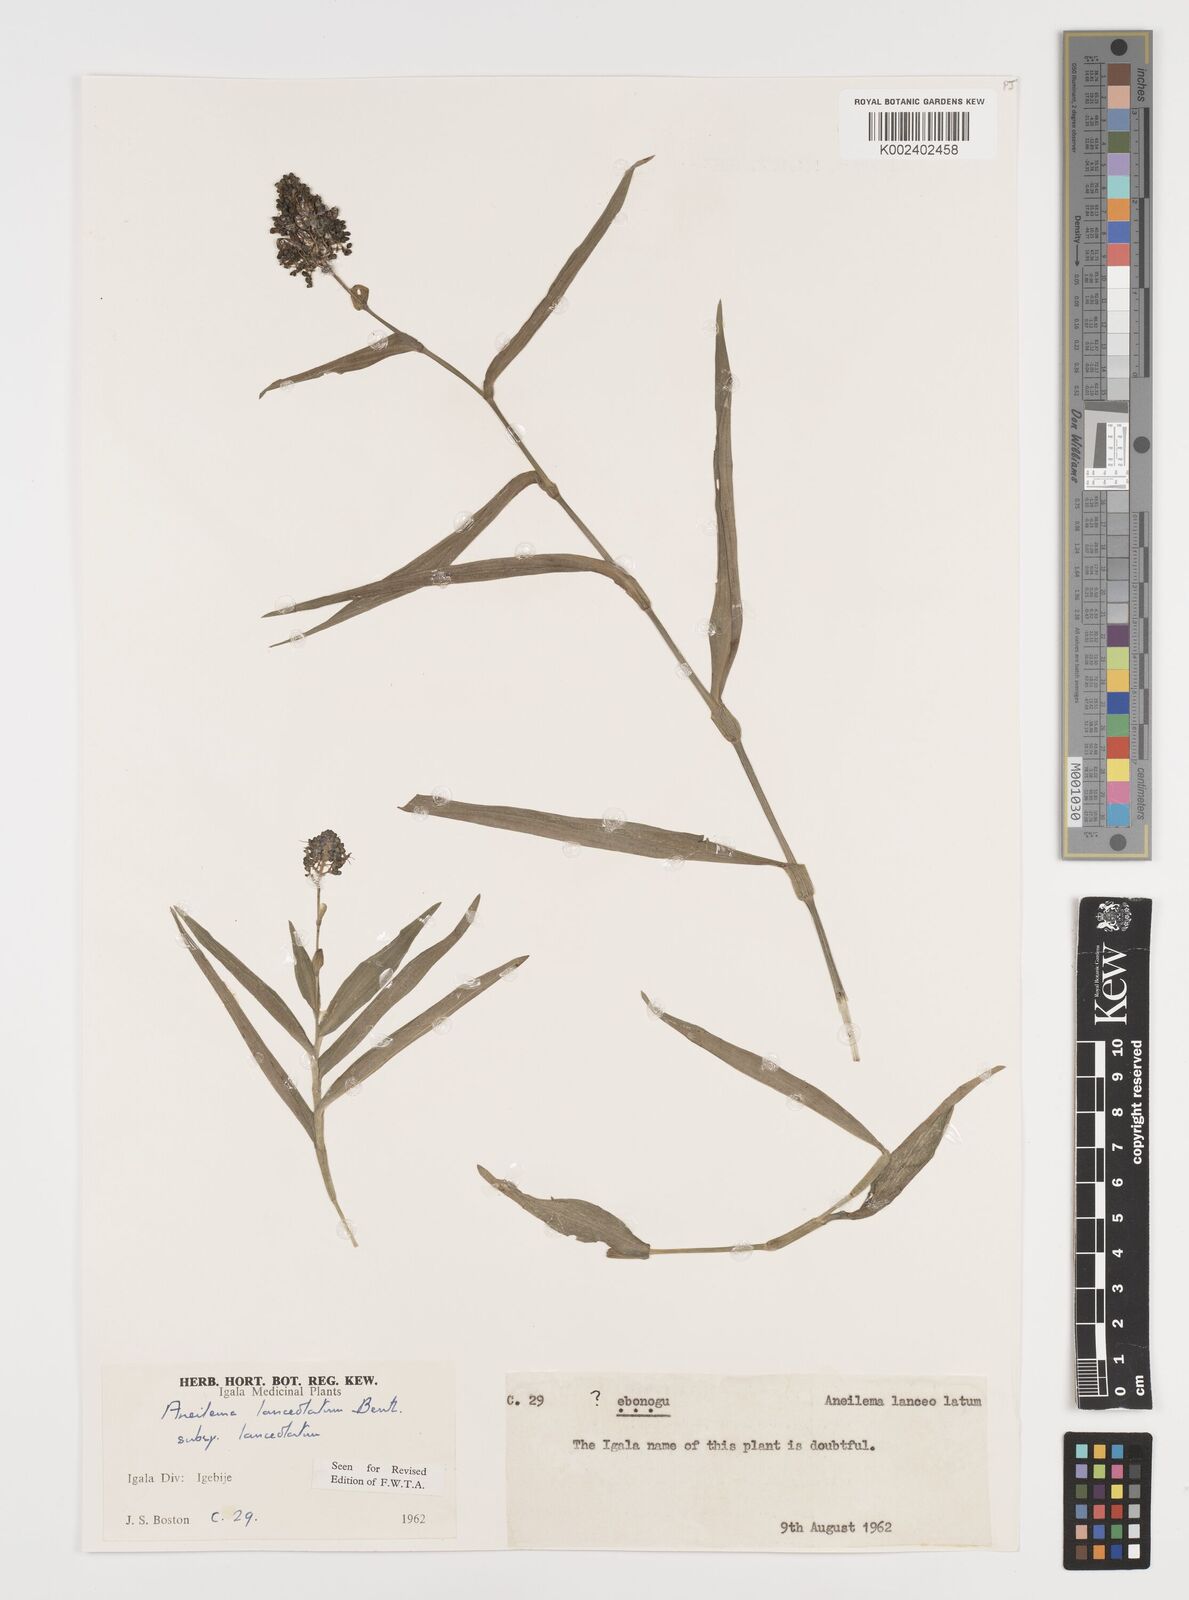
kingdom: Plantae
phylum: Tracheophyta
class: Liliopsida
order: Commelinales
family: Commelinaceae
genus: Aneilema
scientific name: Aneilema lanceolatum
